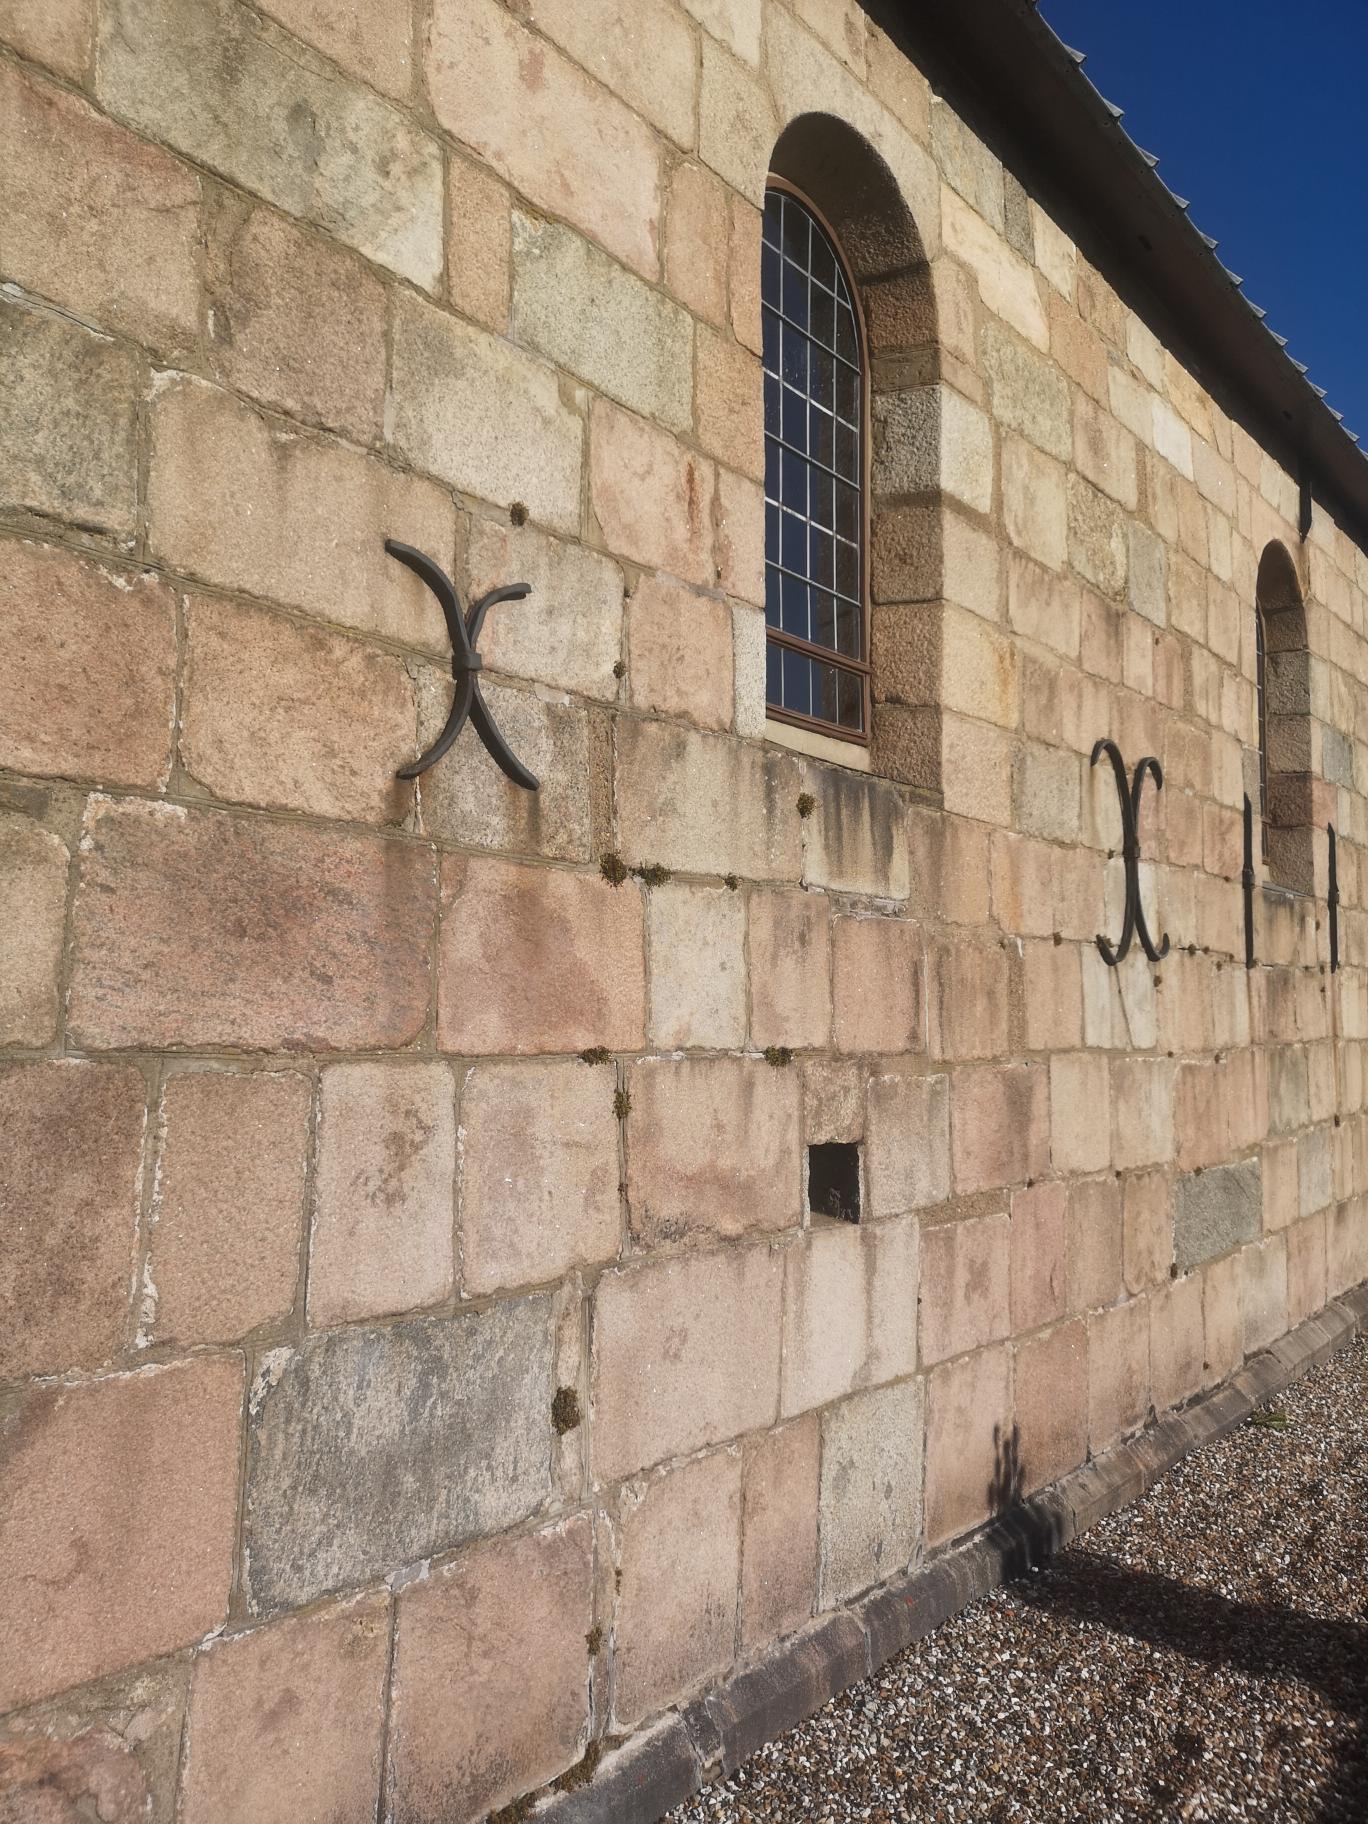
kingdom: Plantae
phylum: Tracheophyta
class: Polypodiopsida
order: Polypodiales
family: Aspleniaceae
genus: Asplenium
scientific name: Asplenium ruta-muraria
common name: Murrude
